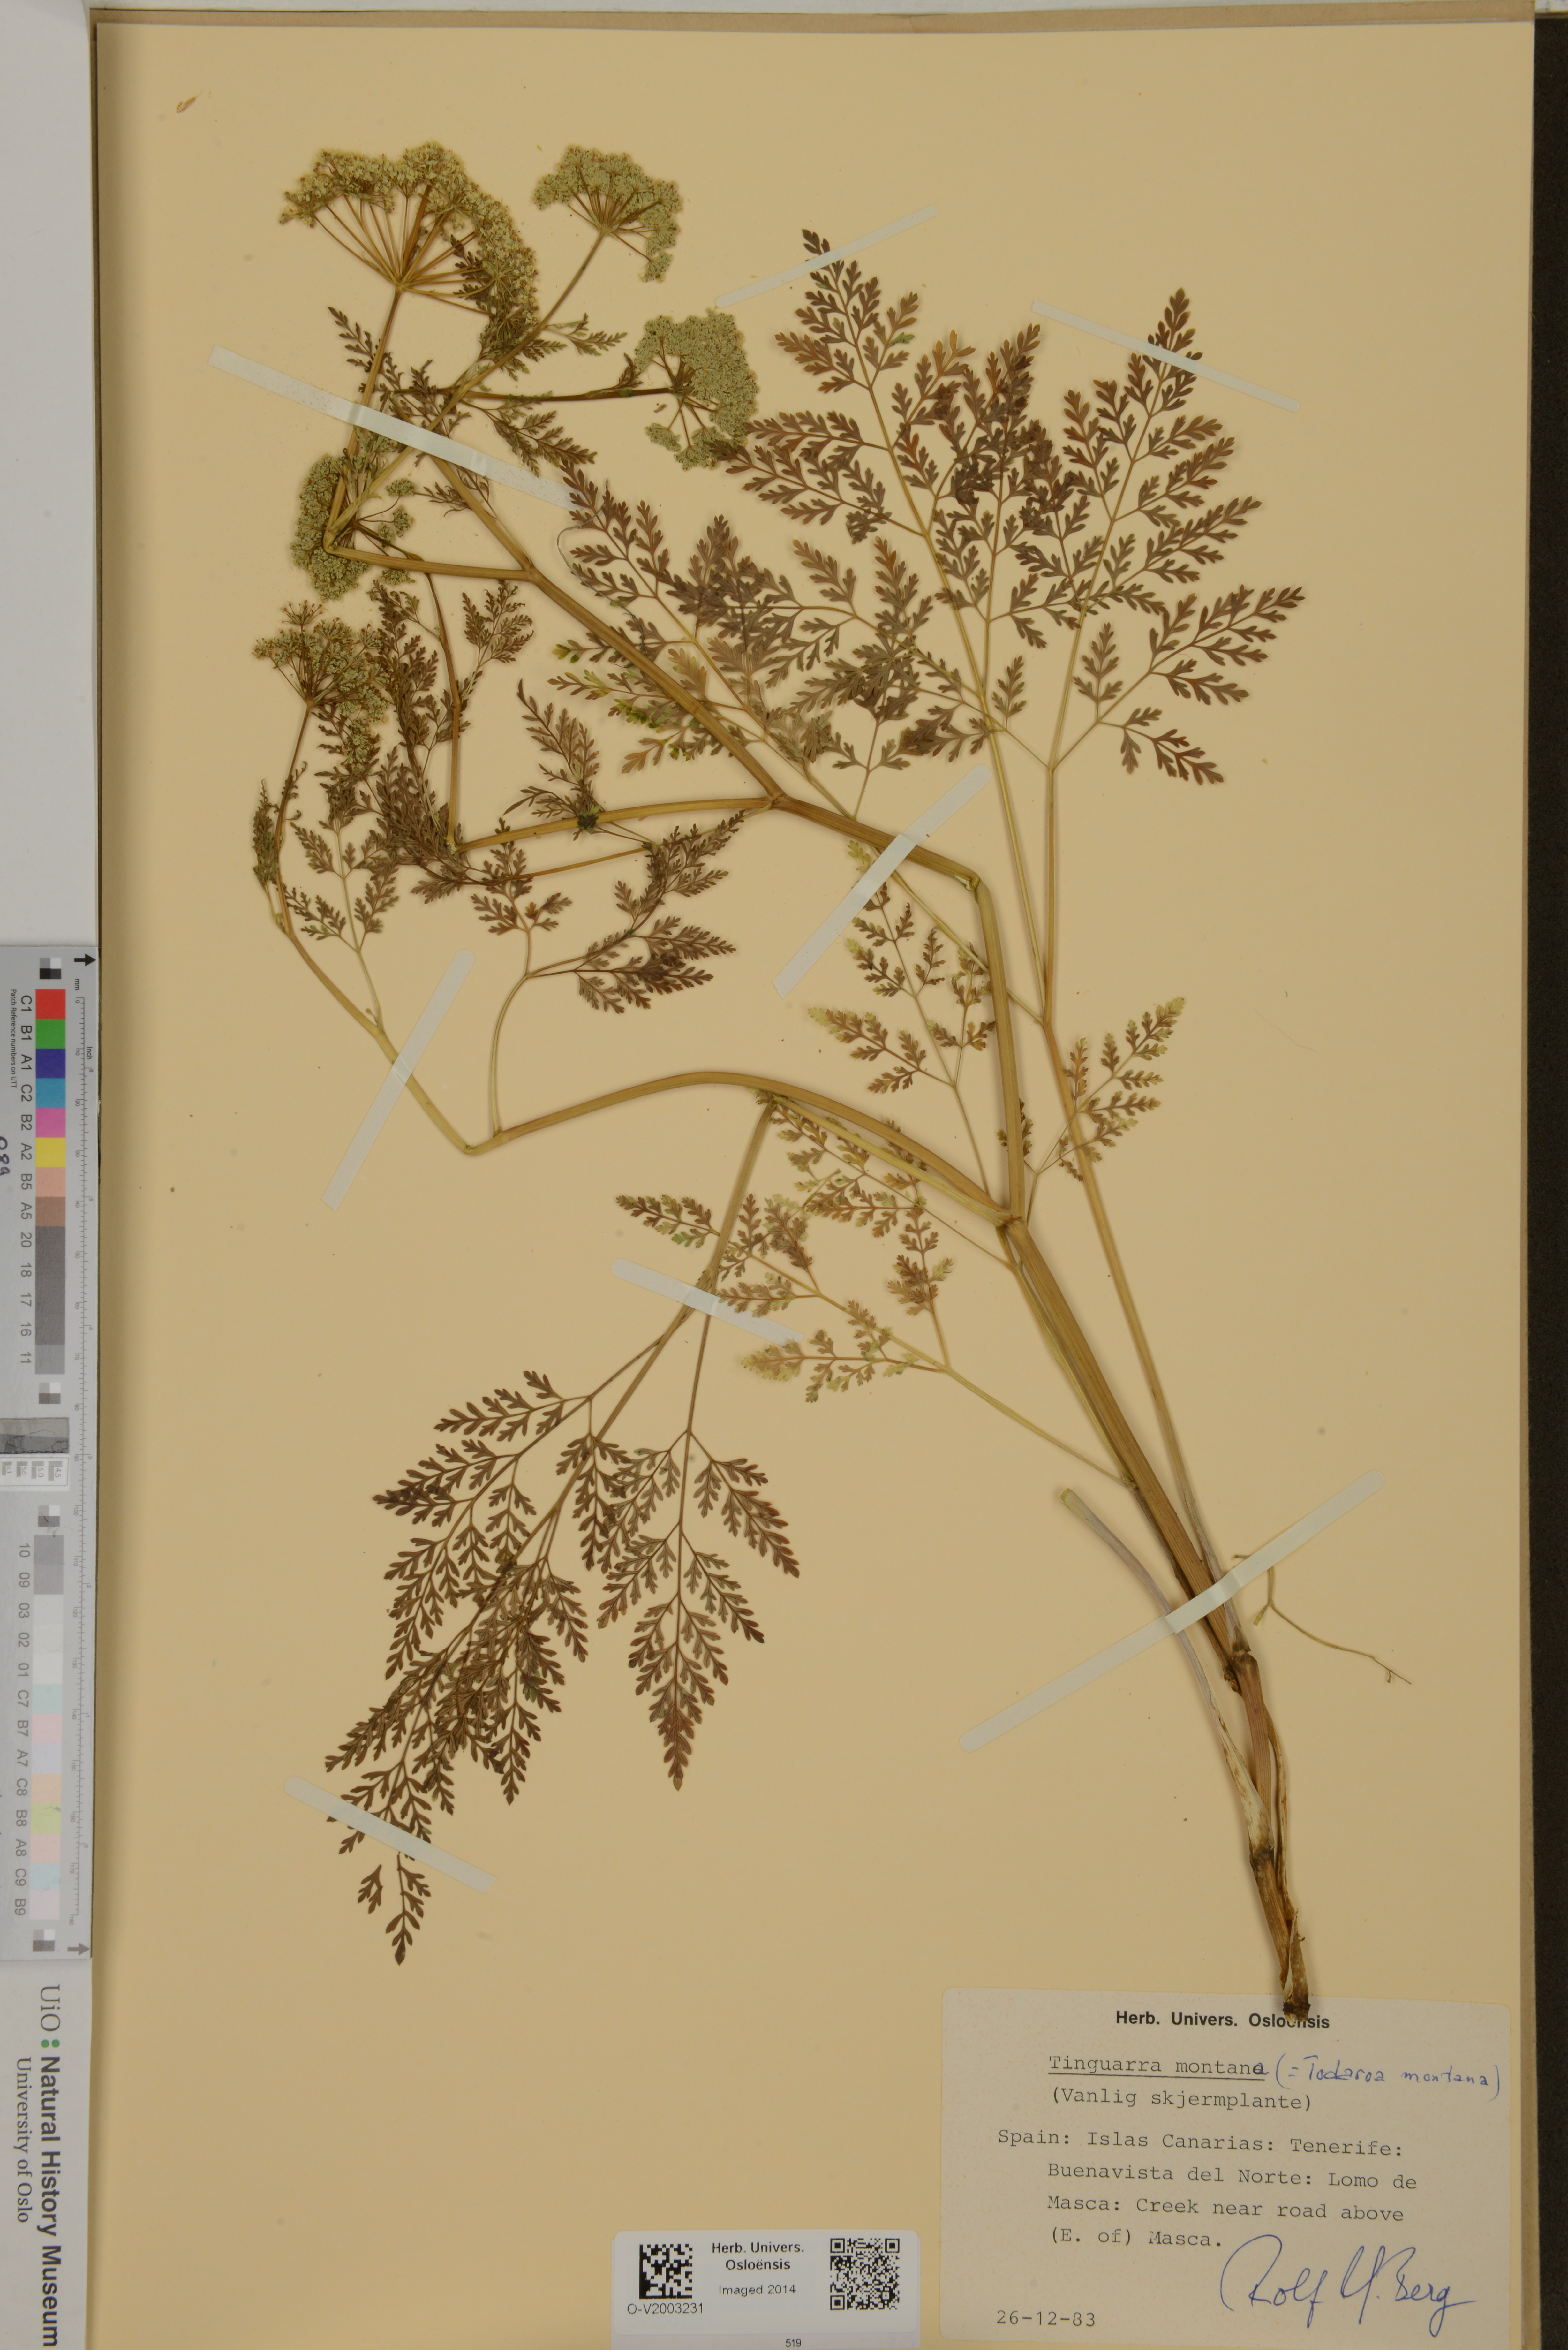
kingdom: Plantae
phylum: Tracheophyta
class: Magnoliopsida
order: Apiales
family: Apiaceae
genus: Athamanta
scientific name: Athamanta montana
